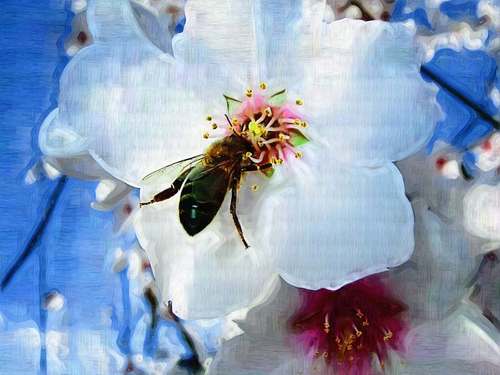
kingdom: Animalia
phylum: Arthropoda
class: Insecta
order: Hymenoptera
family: Apidae
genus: Apis
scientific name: Apis mellifera
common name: Honey bee
